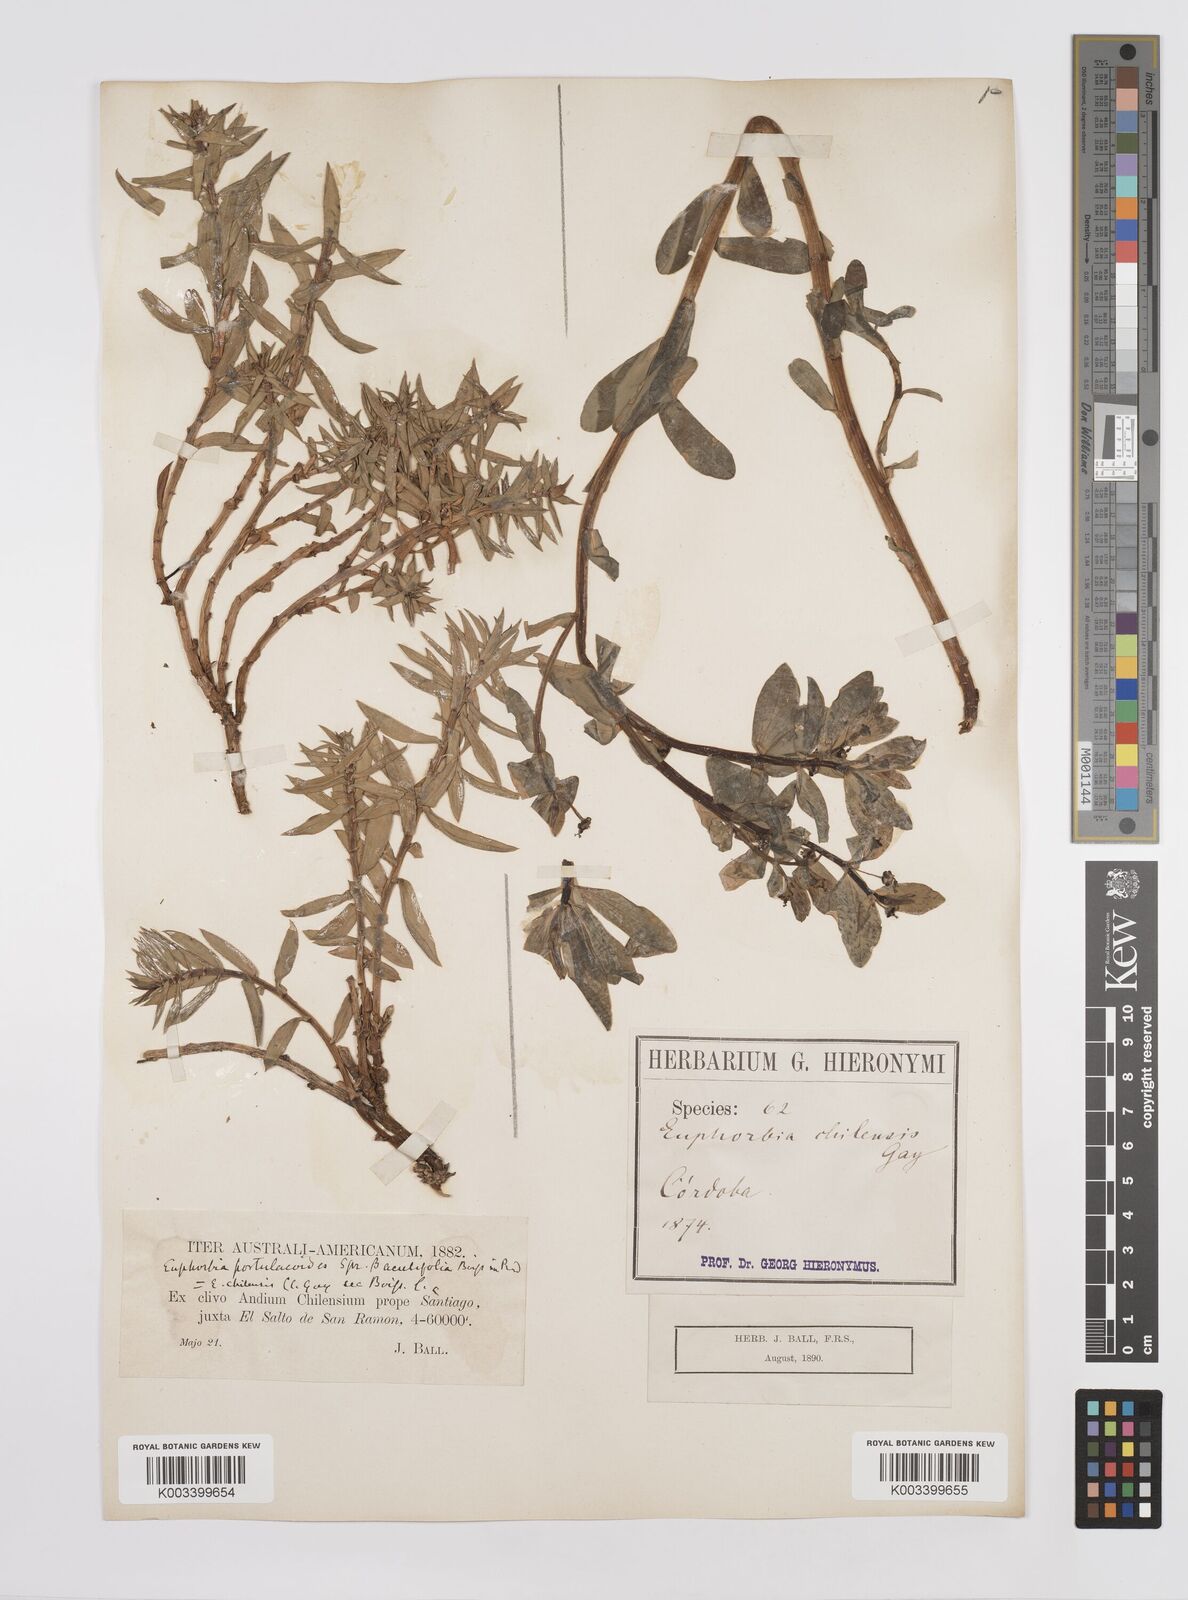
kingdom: Plantae
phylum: Tracheophyta
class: Magnoliopsida
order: Malpighiales
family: Euphorbiaceae
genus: Euphorbia
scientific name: Euphorbia portulacoides
